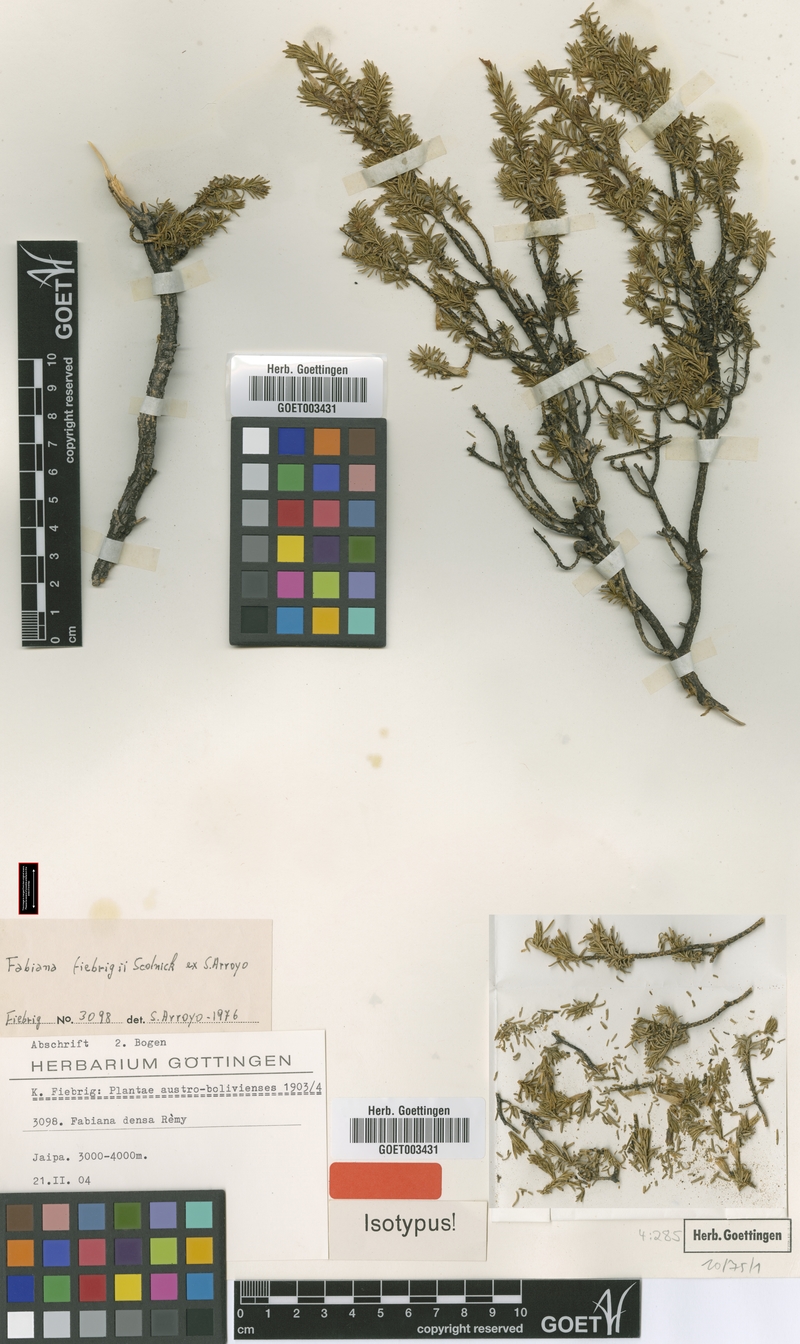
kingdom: Plantae
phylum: Tracheophyta
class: Magnoliopsida
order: Solanales
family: Solanaceae
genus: Fabiana
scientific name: Fabiana fiebrigii
